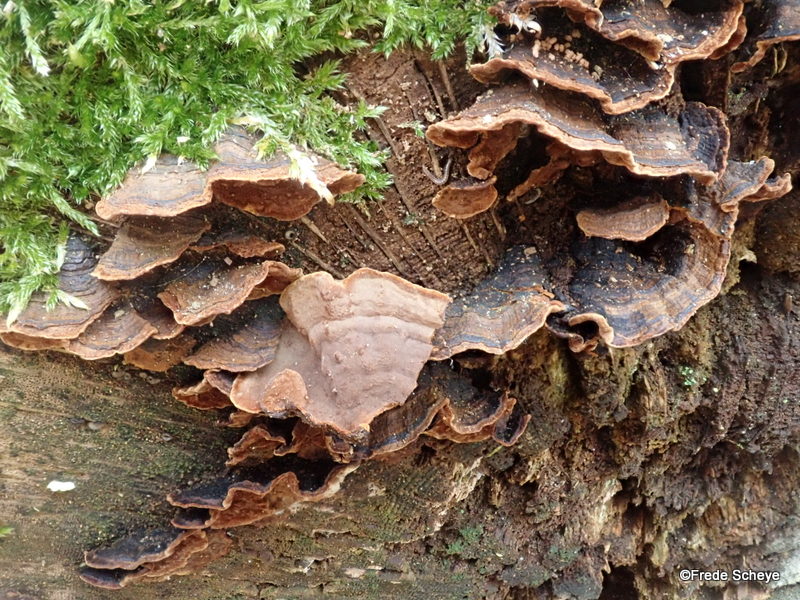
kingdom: Fungi
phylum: Basidiomycota
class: Agaricomycetes
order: Hymenochaetales
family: Hymenochaetaceae
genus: Hymenochaete
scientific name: Hymenochaete rubiginosa
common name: stiv ruslædersvamp
